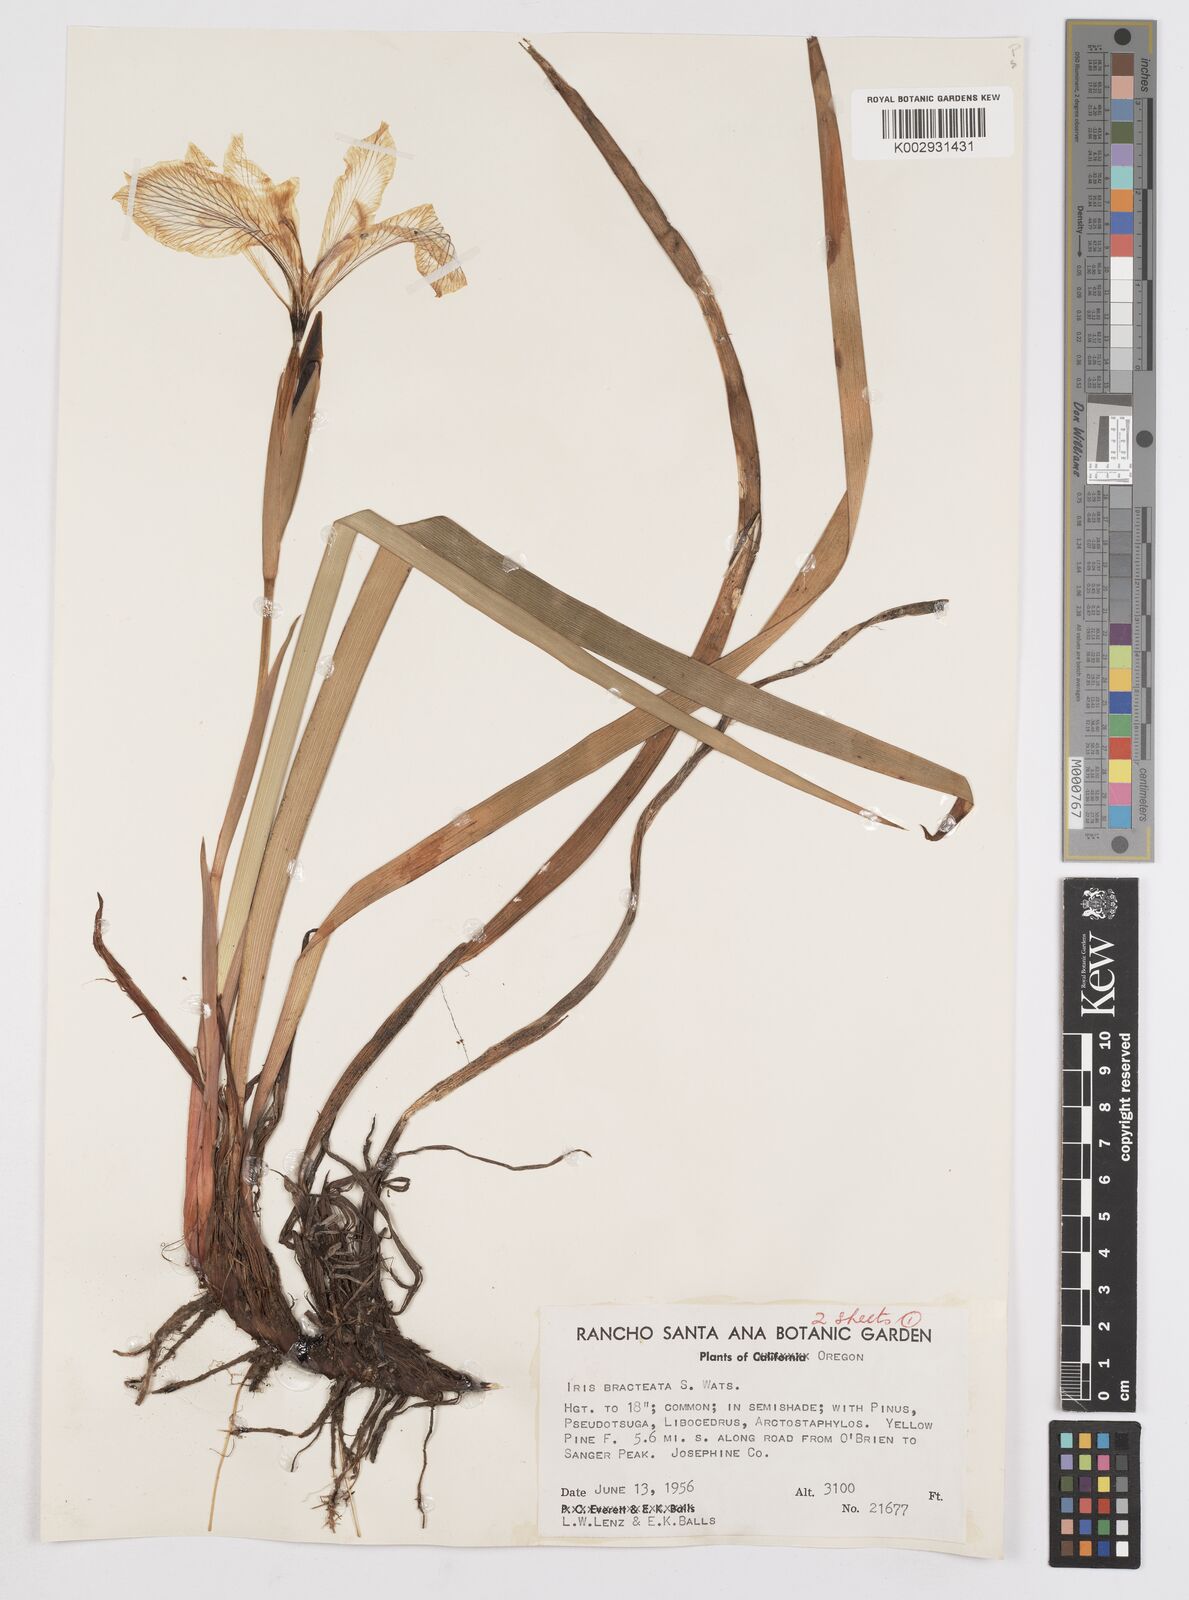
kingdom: Plantae
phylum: Tracheophyta
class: Liliopsida
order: Asparagales
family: Iridaceae
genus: Iris
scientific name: Iris bracteata
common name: Siskiyou iris
